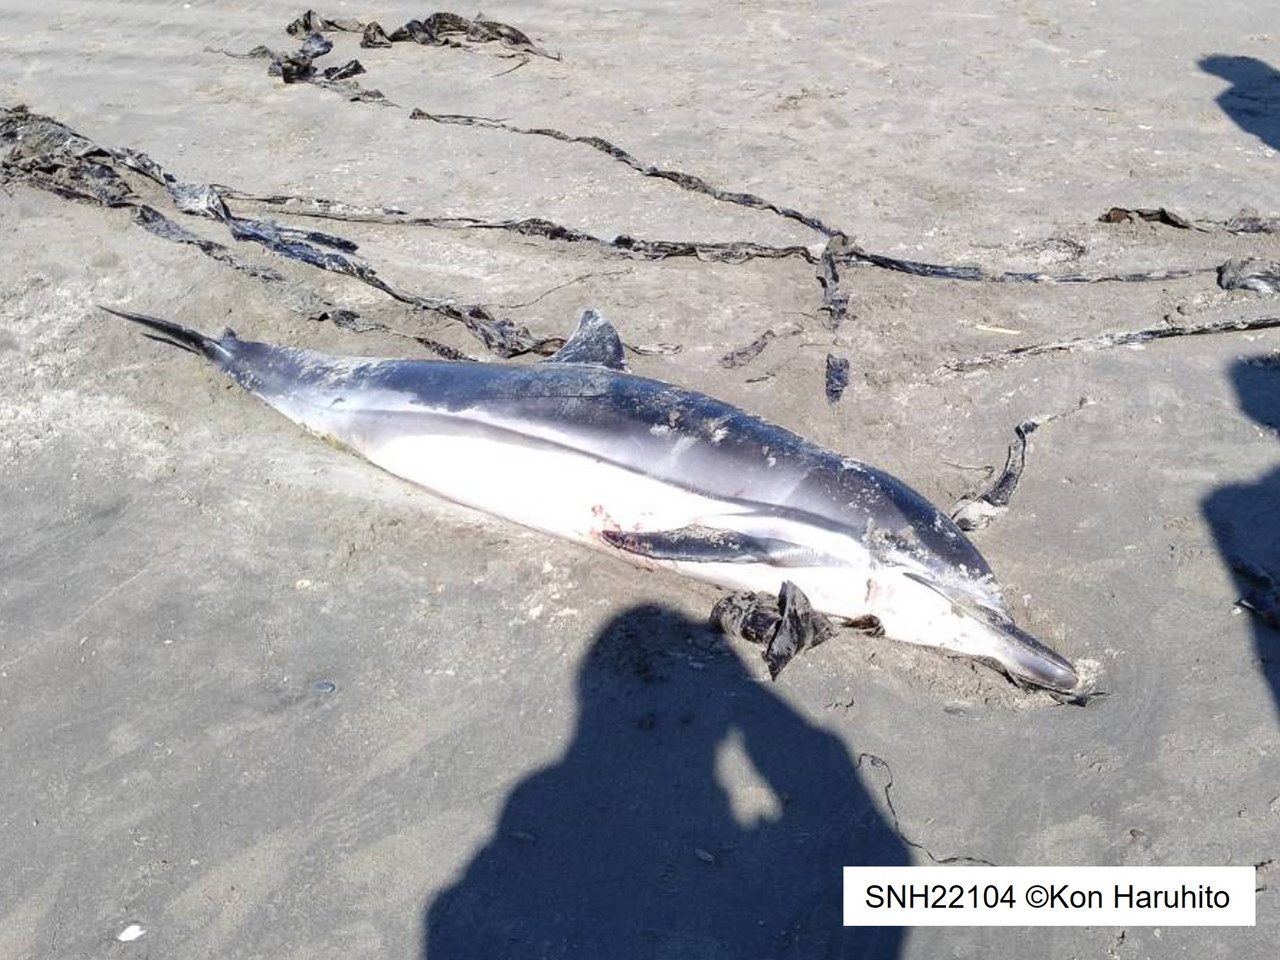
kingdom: Animalia
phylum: Chordata
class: Mammalia
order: Cetacea
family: Delphinidae
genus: Stenella
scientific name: Stenella coeruleoalba
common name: Striped dolphin
